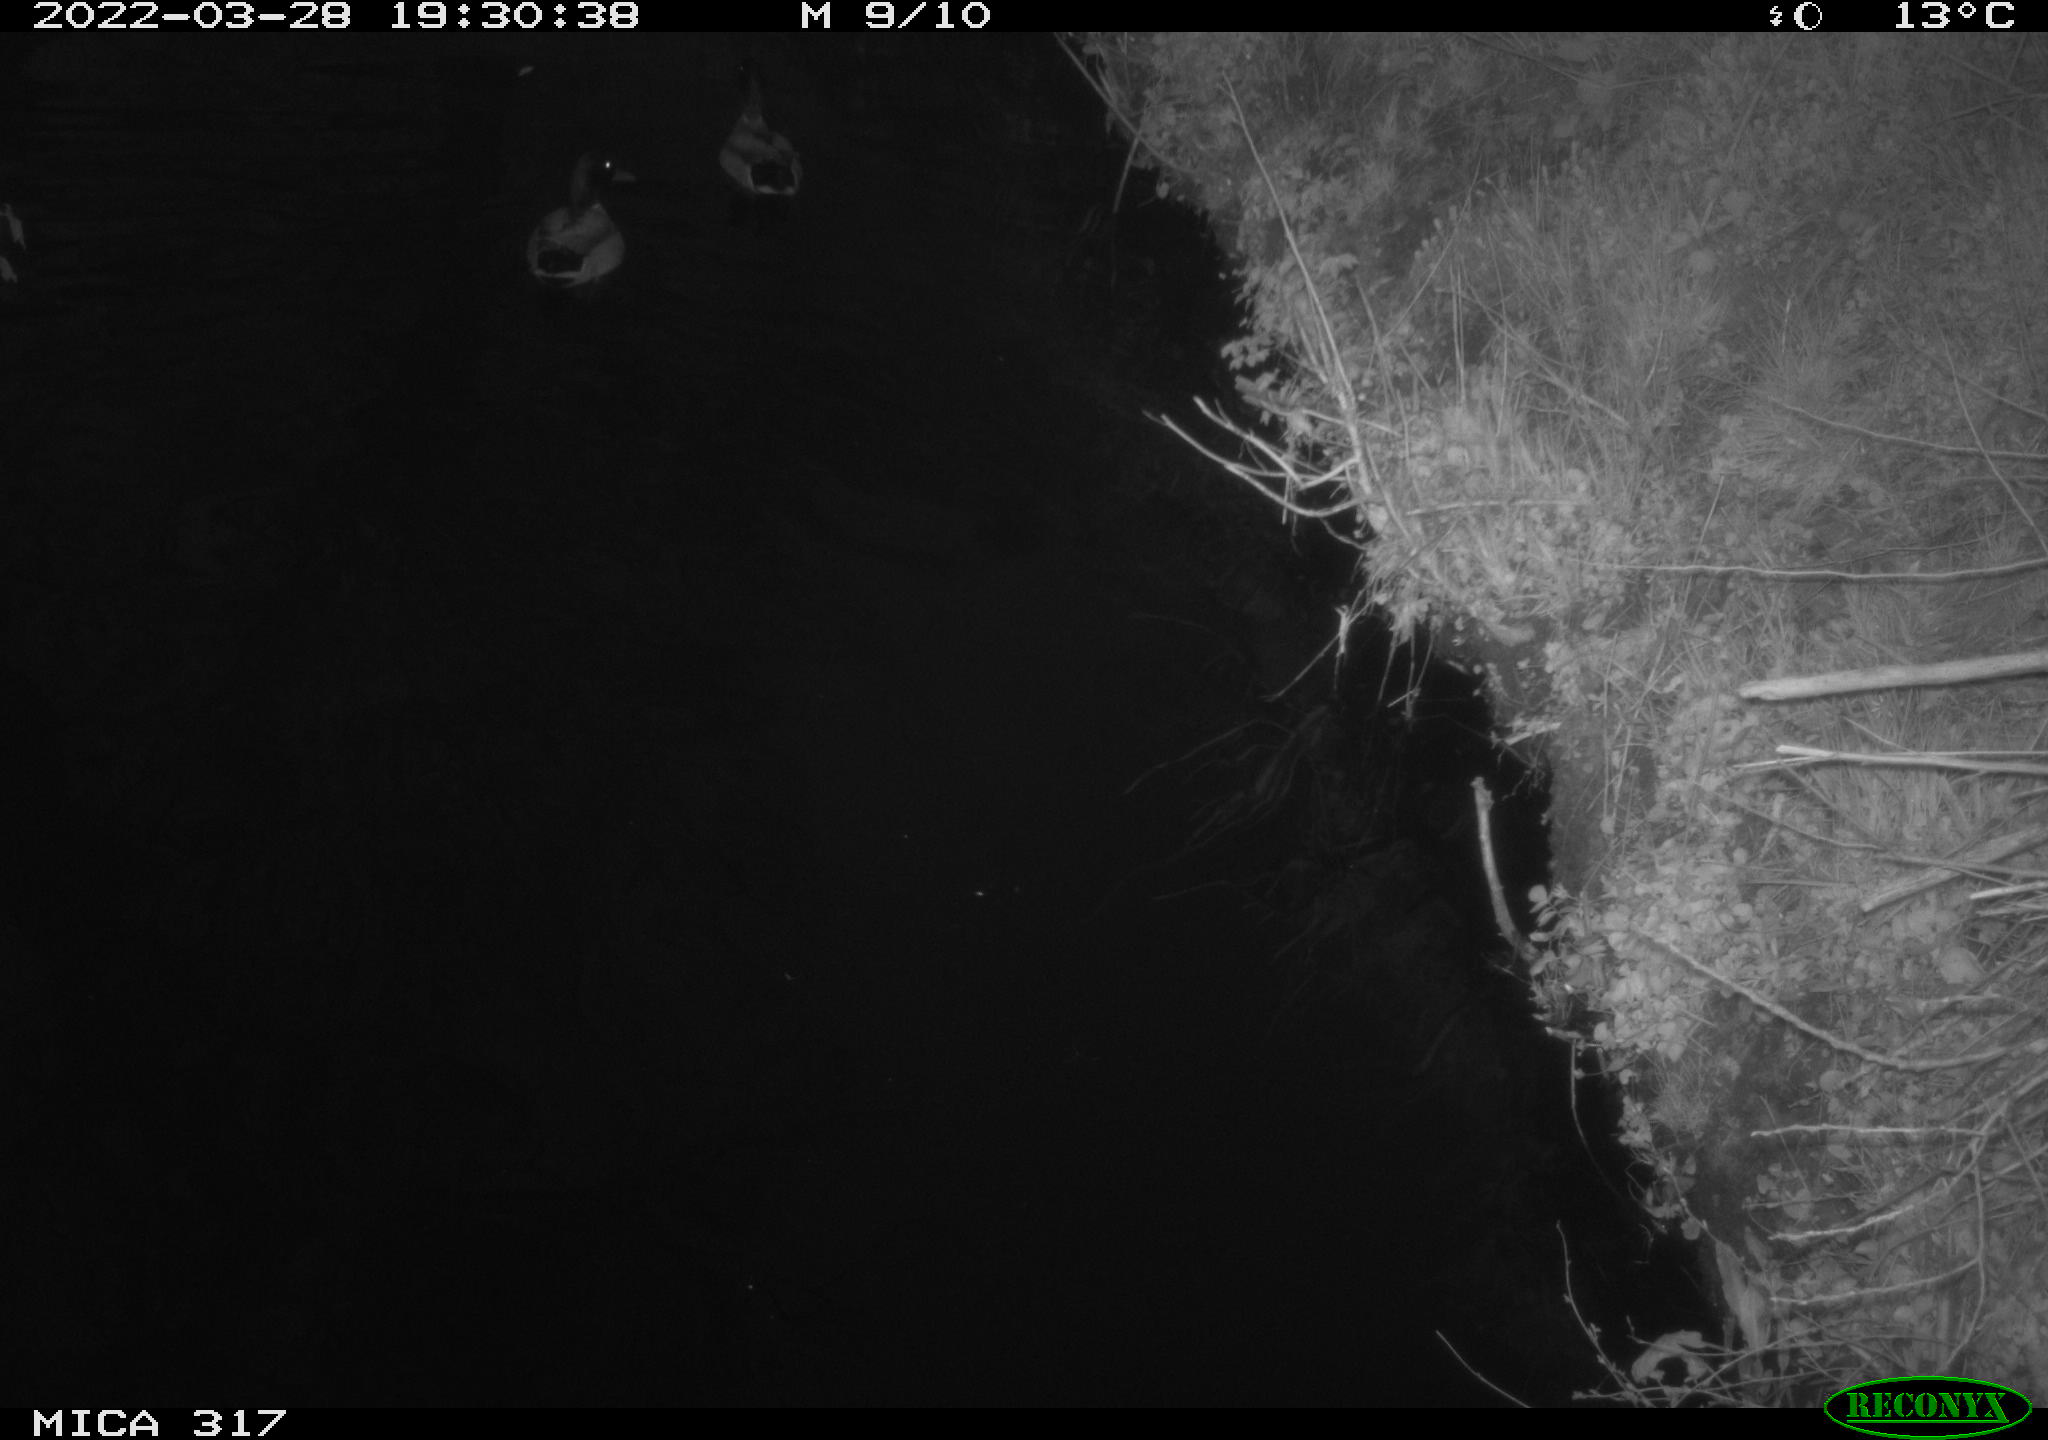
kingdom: Animalia
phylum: Chordata
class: Aves
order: Anseriformes
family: Anatidae
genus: Anas
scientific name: Anas platyrhynchos
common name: Mallard
